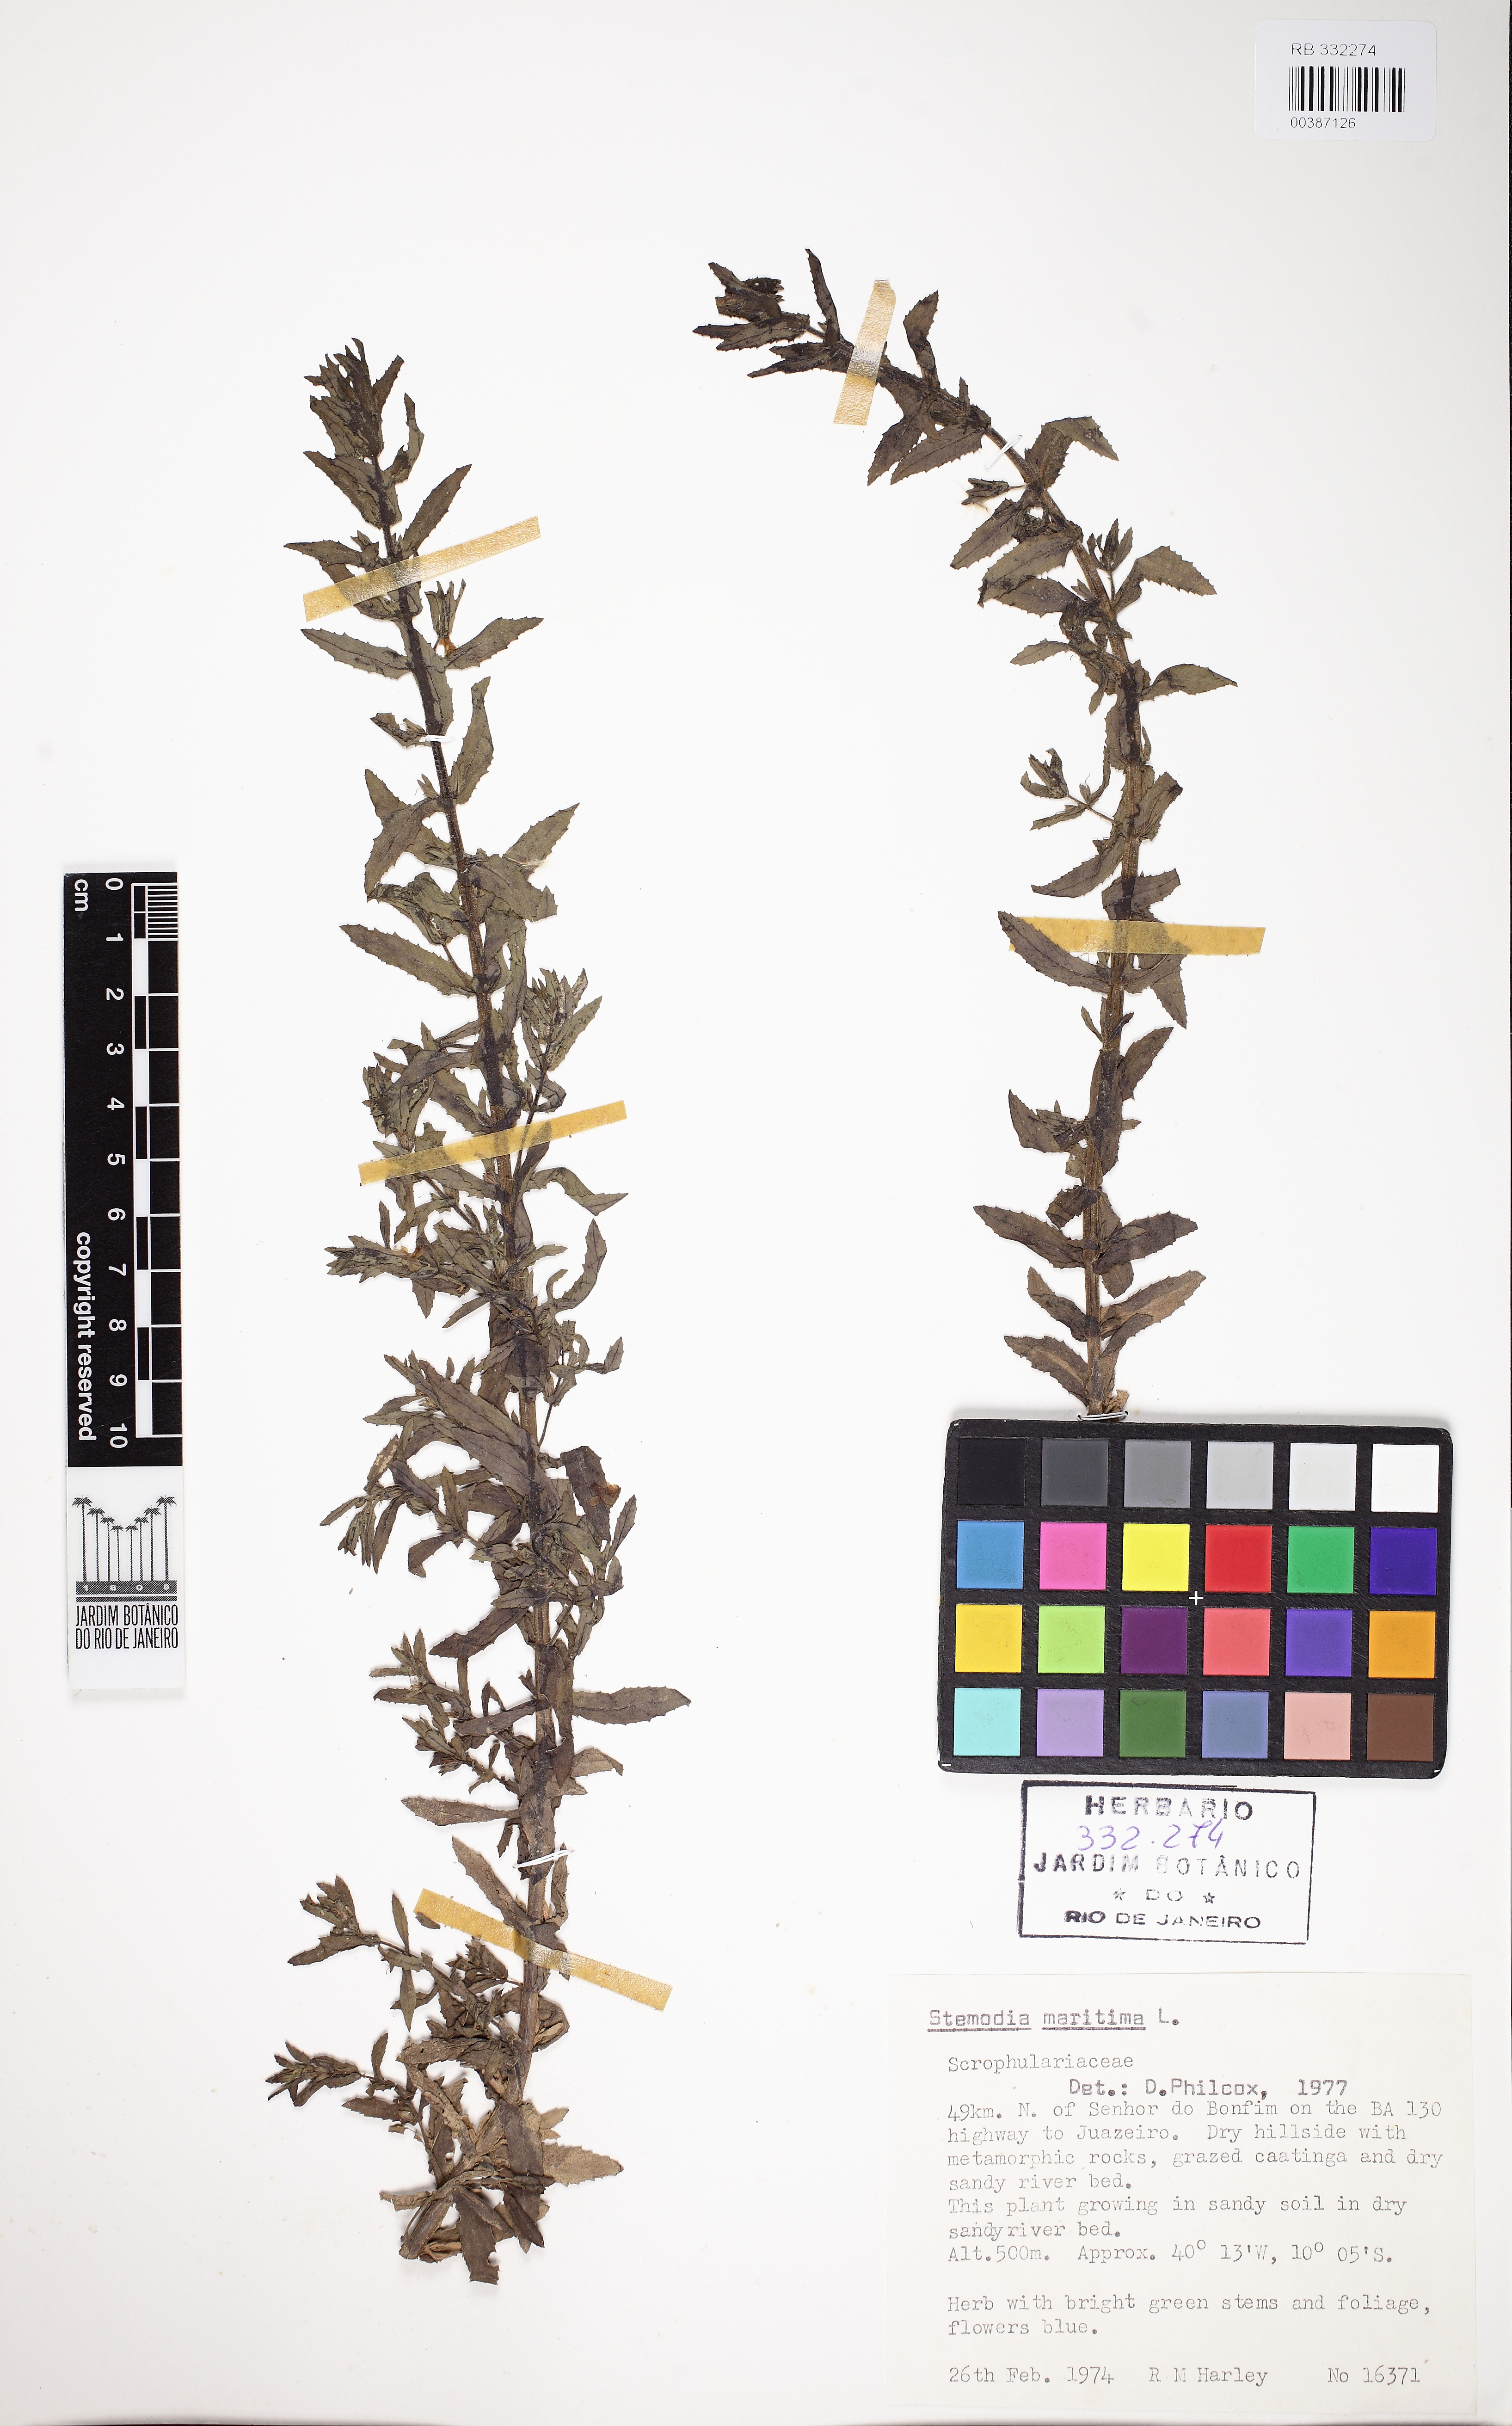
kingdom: Plantae
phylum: Tracheophyta
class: Magnoliopsida
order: Lamiales
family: Plantaginaceae
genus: Stemodia
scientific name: Stemodia maritima
